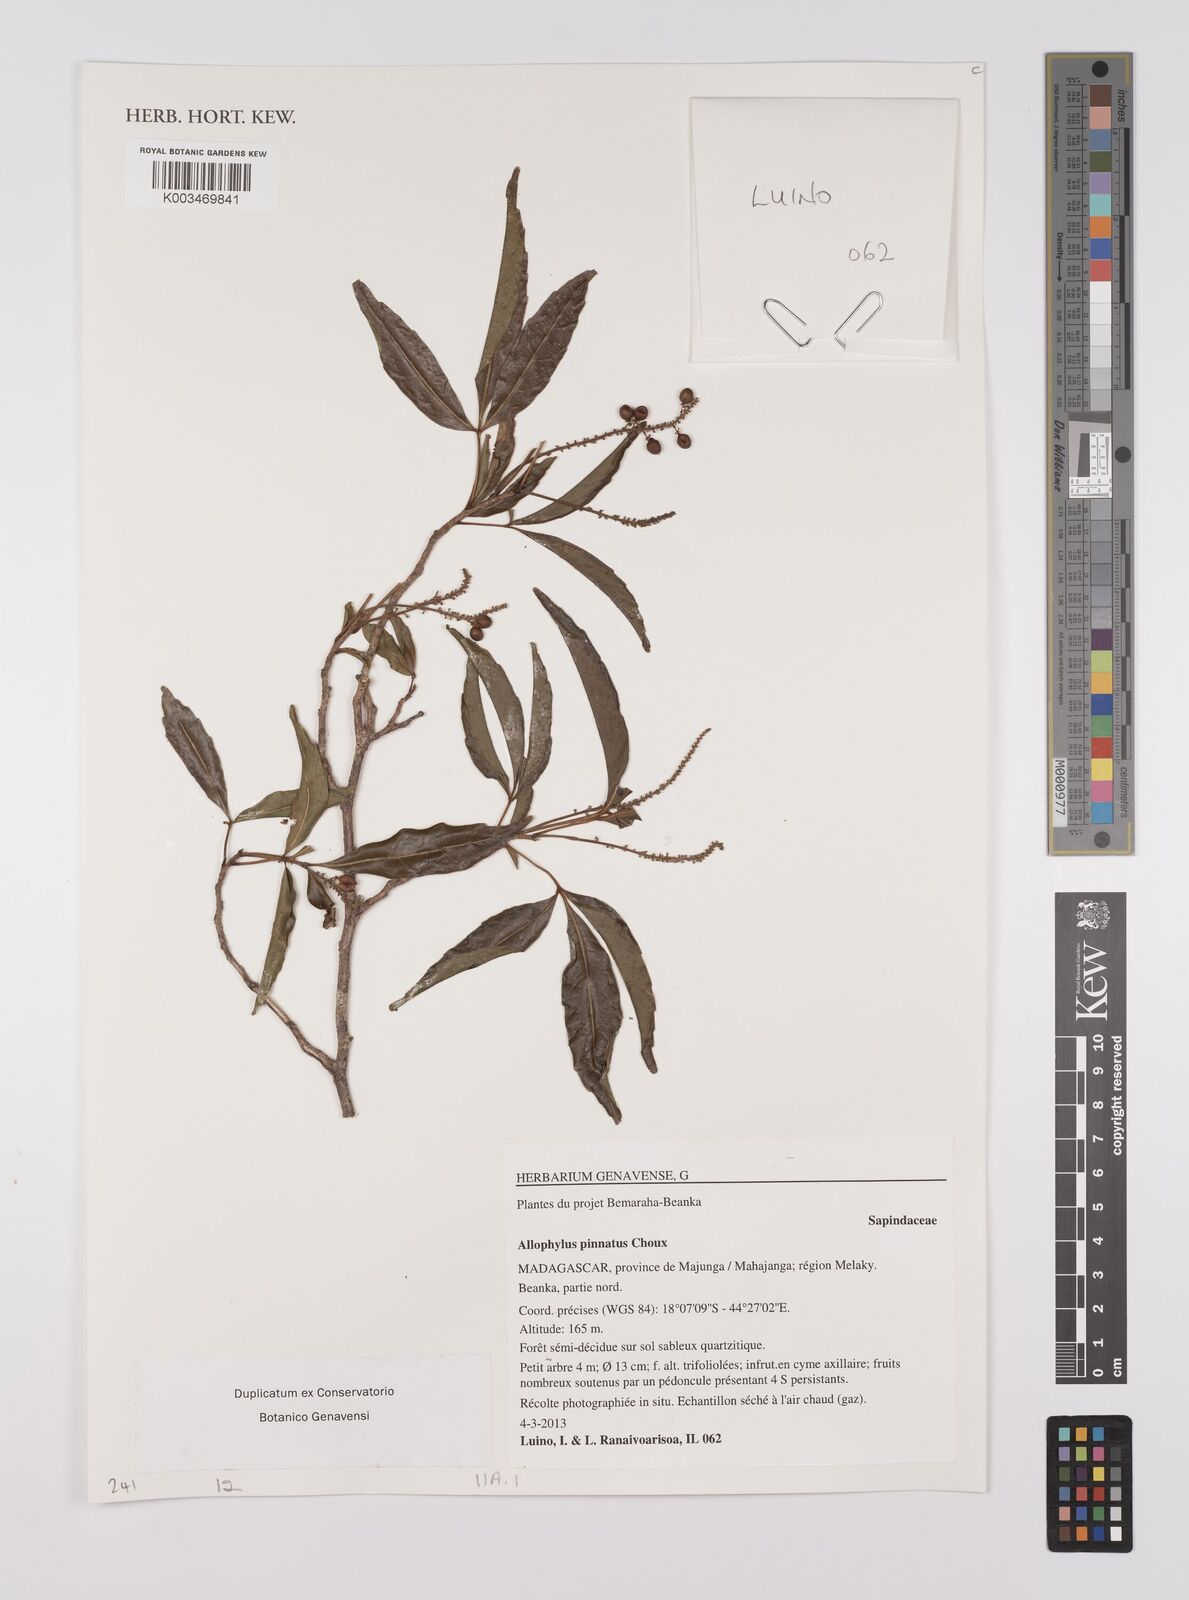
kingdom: Plantae
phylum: Tracheophyta
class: Magnoliopsida
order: Sapindales
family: Sapindaceae
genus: Allophylus
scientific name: Allophylus pinnatus
